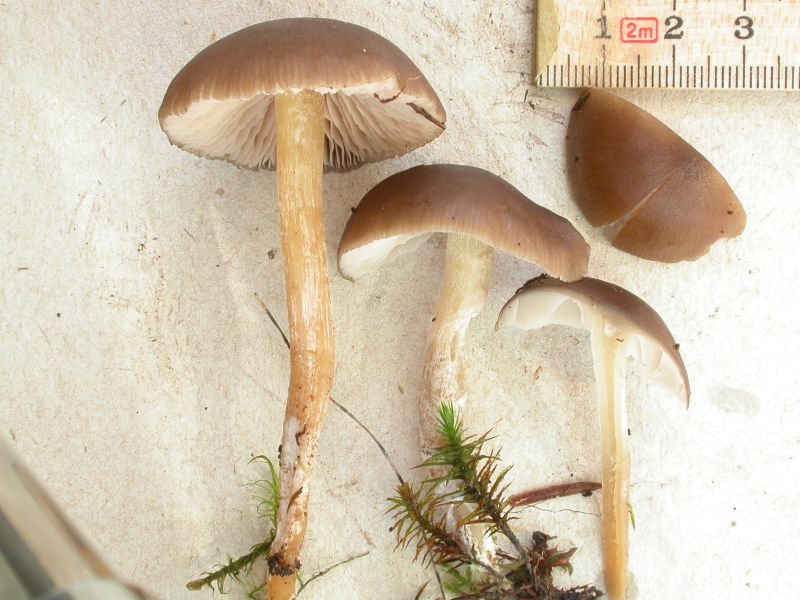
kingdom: Fungi
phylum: Basidiomycota
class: Agaricomycetes
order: Agaricales
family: Entolomataceae
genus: Entocybe
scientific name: Entocybe vinacea
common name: november-rødblad
